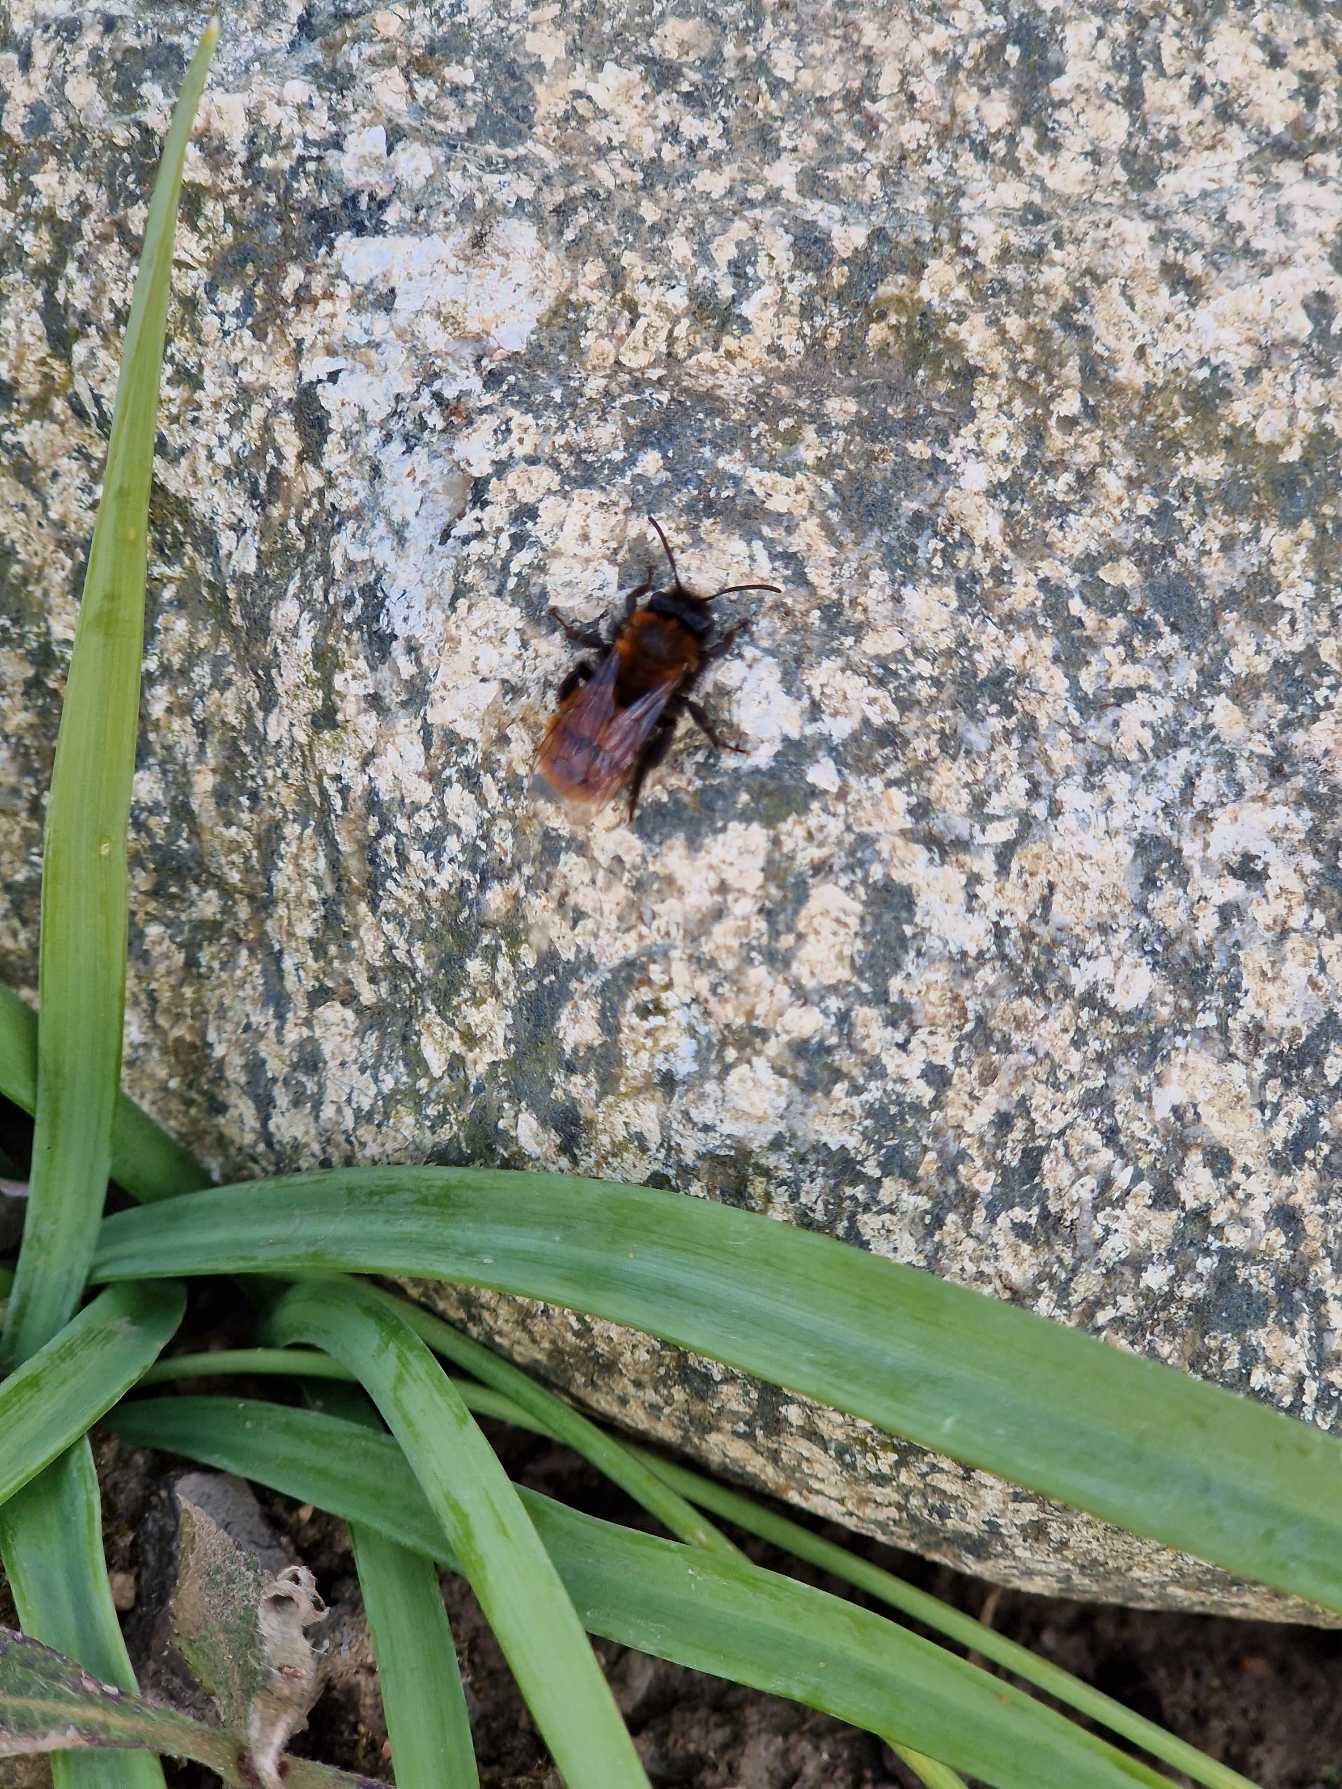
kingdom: Animalia
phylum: Arthropoda
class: Insecta
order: Hymenoptera
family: Andrenidae
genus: Andrena
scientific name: Andrena fulva
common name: Rødpelset jordbi
